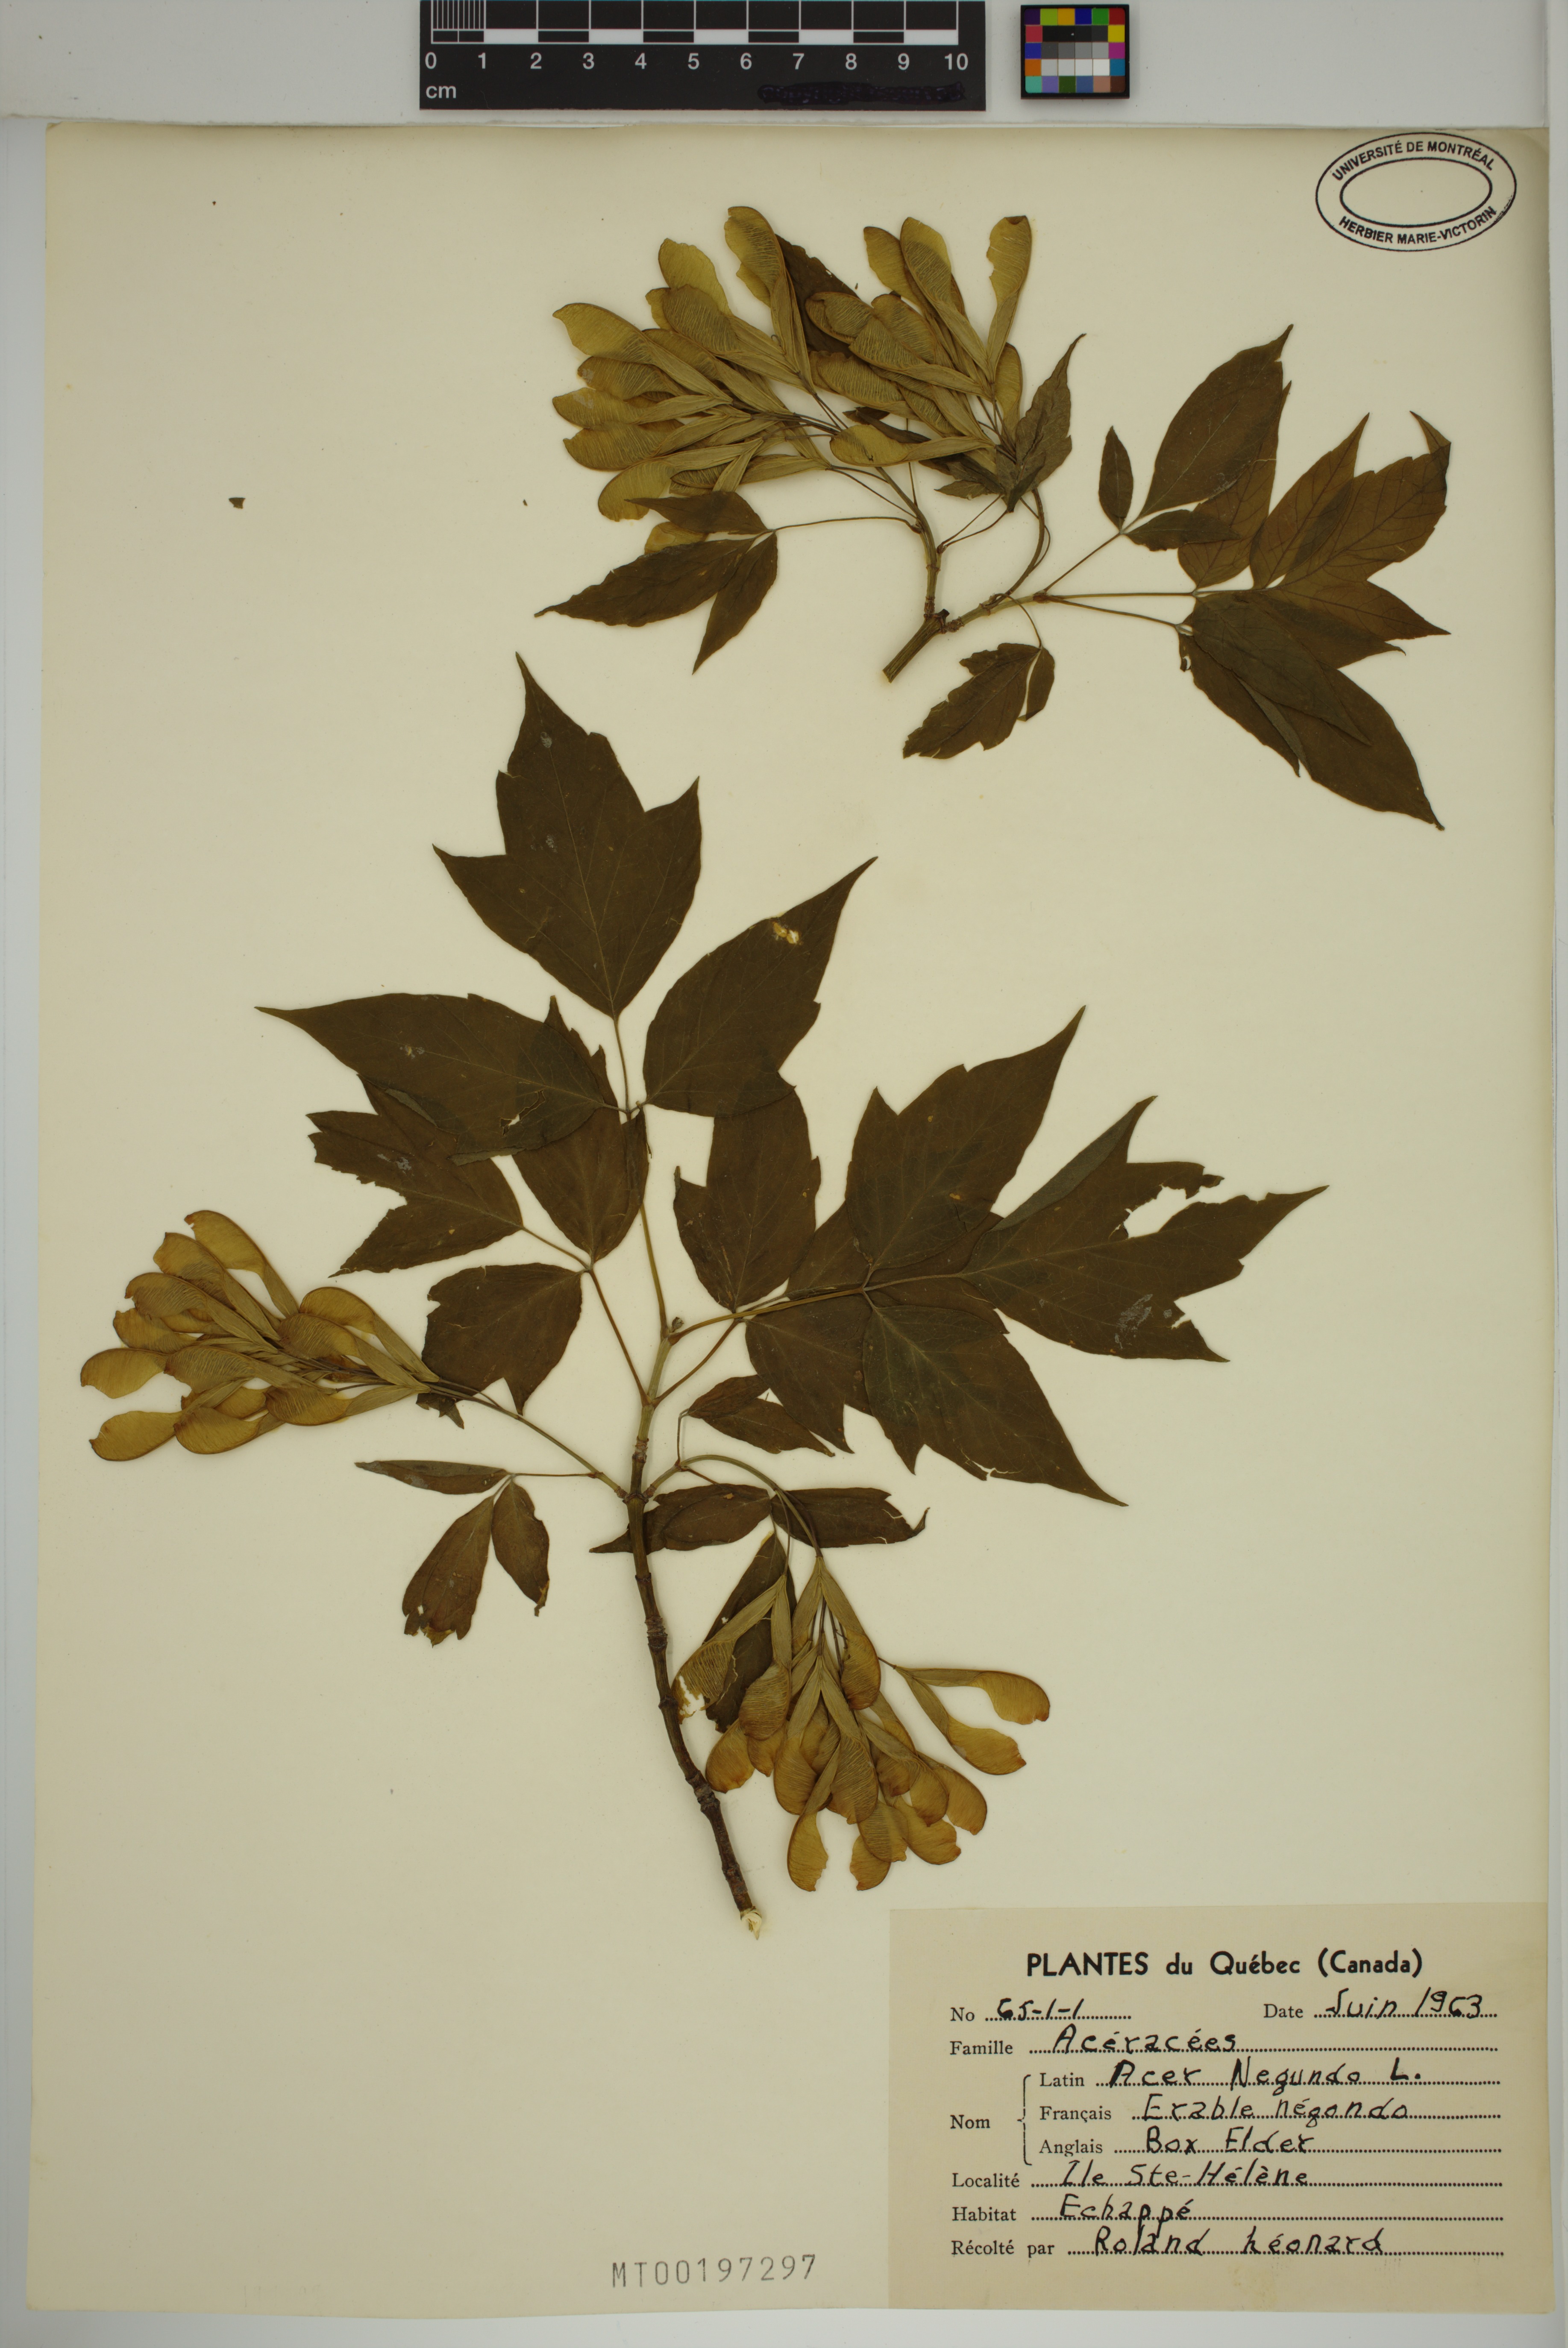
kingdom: Plantae
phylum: Tracheophyta
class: Magnoliopsida
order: Sapindales
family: Sapindaceae
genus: Acer
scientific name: Acer negundo
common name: Ashleaf maple
